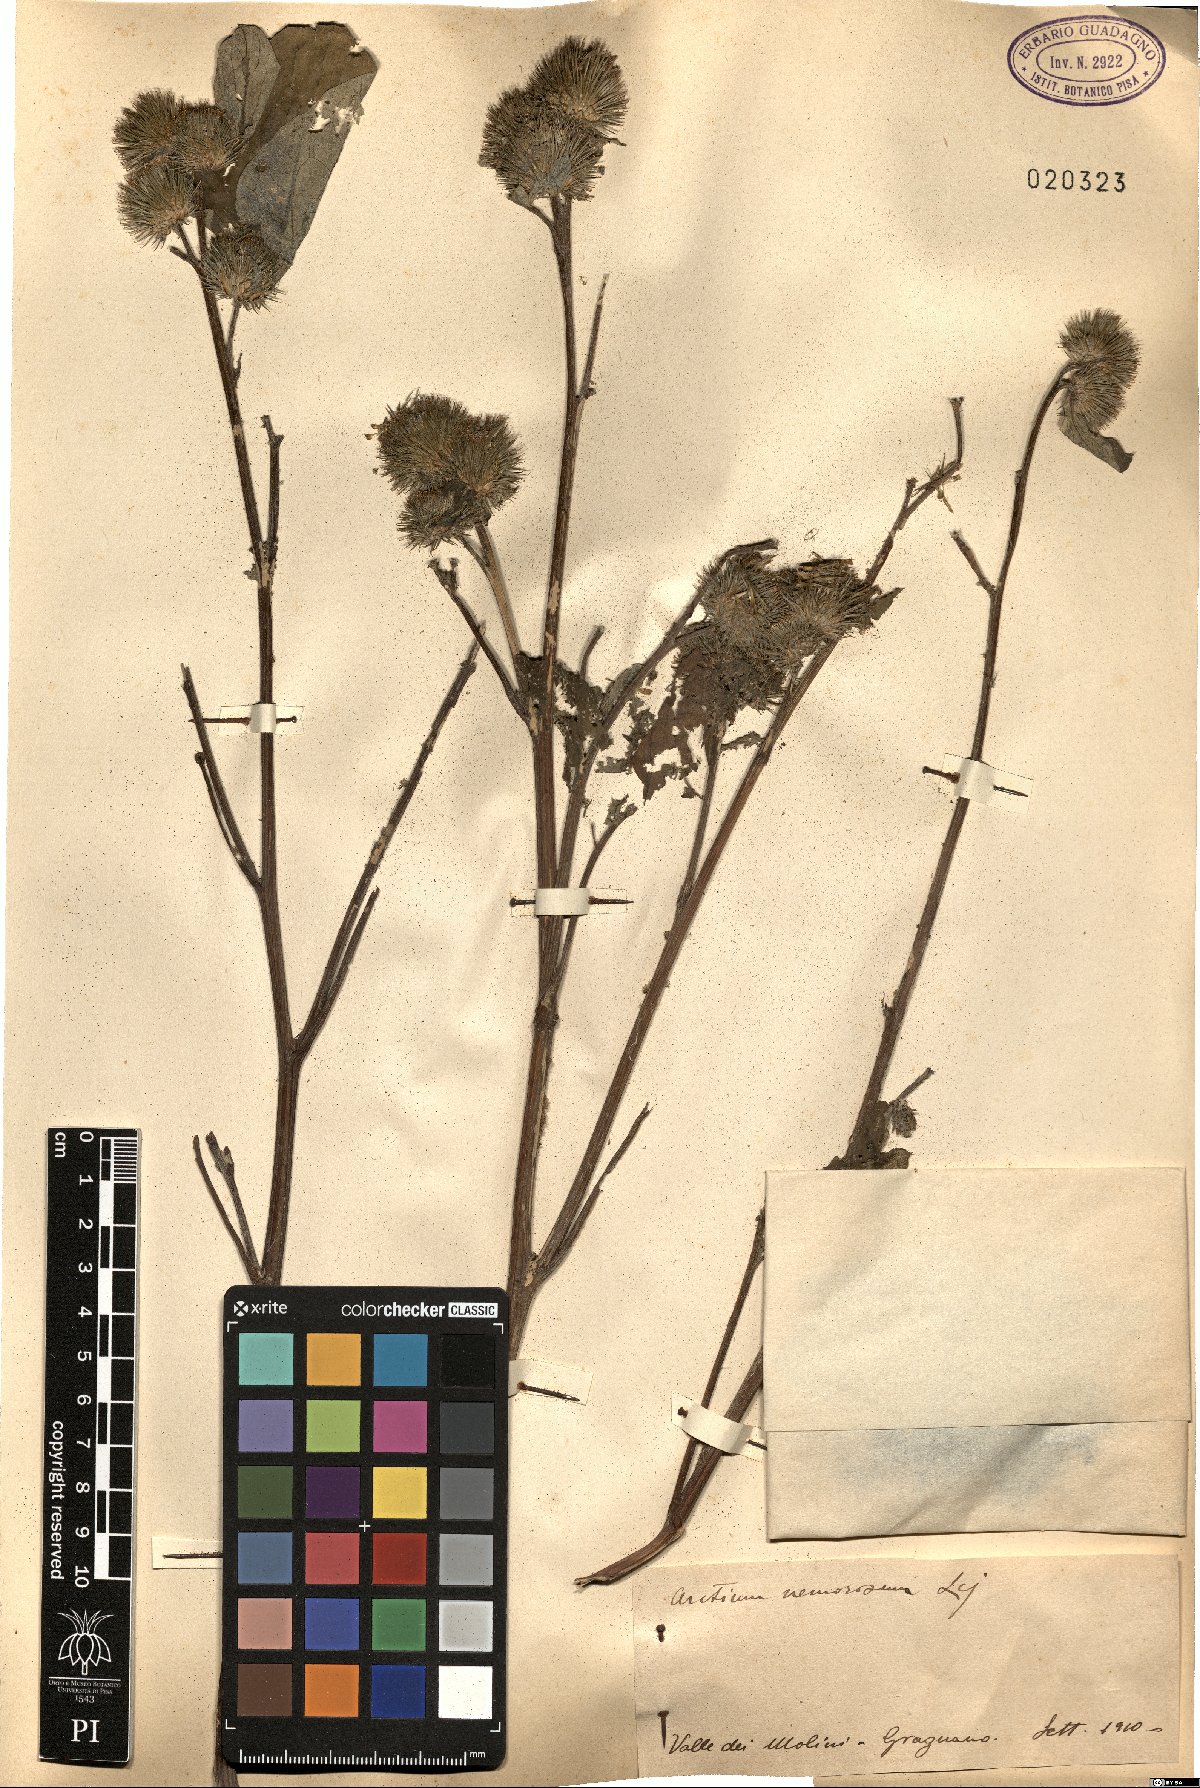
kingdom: Plantae
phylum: Tracheophyta
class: Magnoliopsida
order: Asterales
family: Asteraceae
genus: Arctium
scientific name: Arctium nemorosum
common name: Wood burdock
